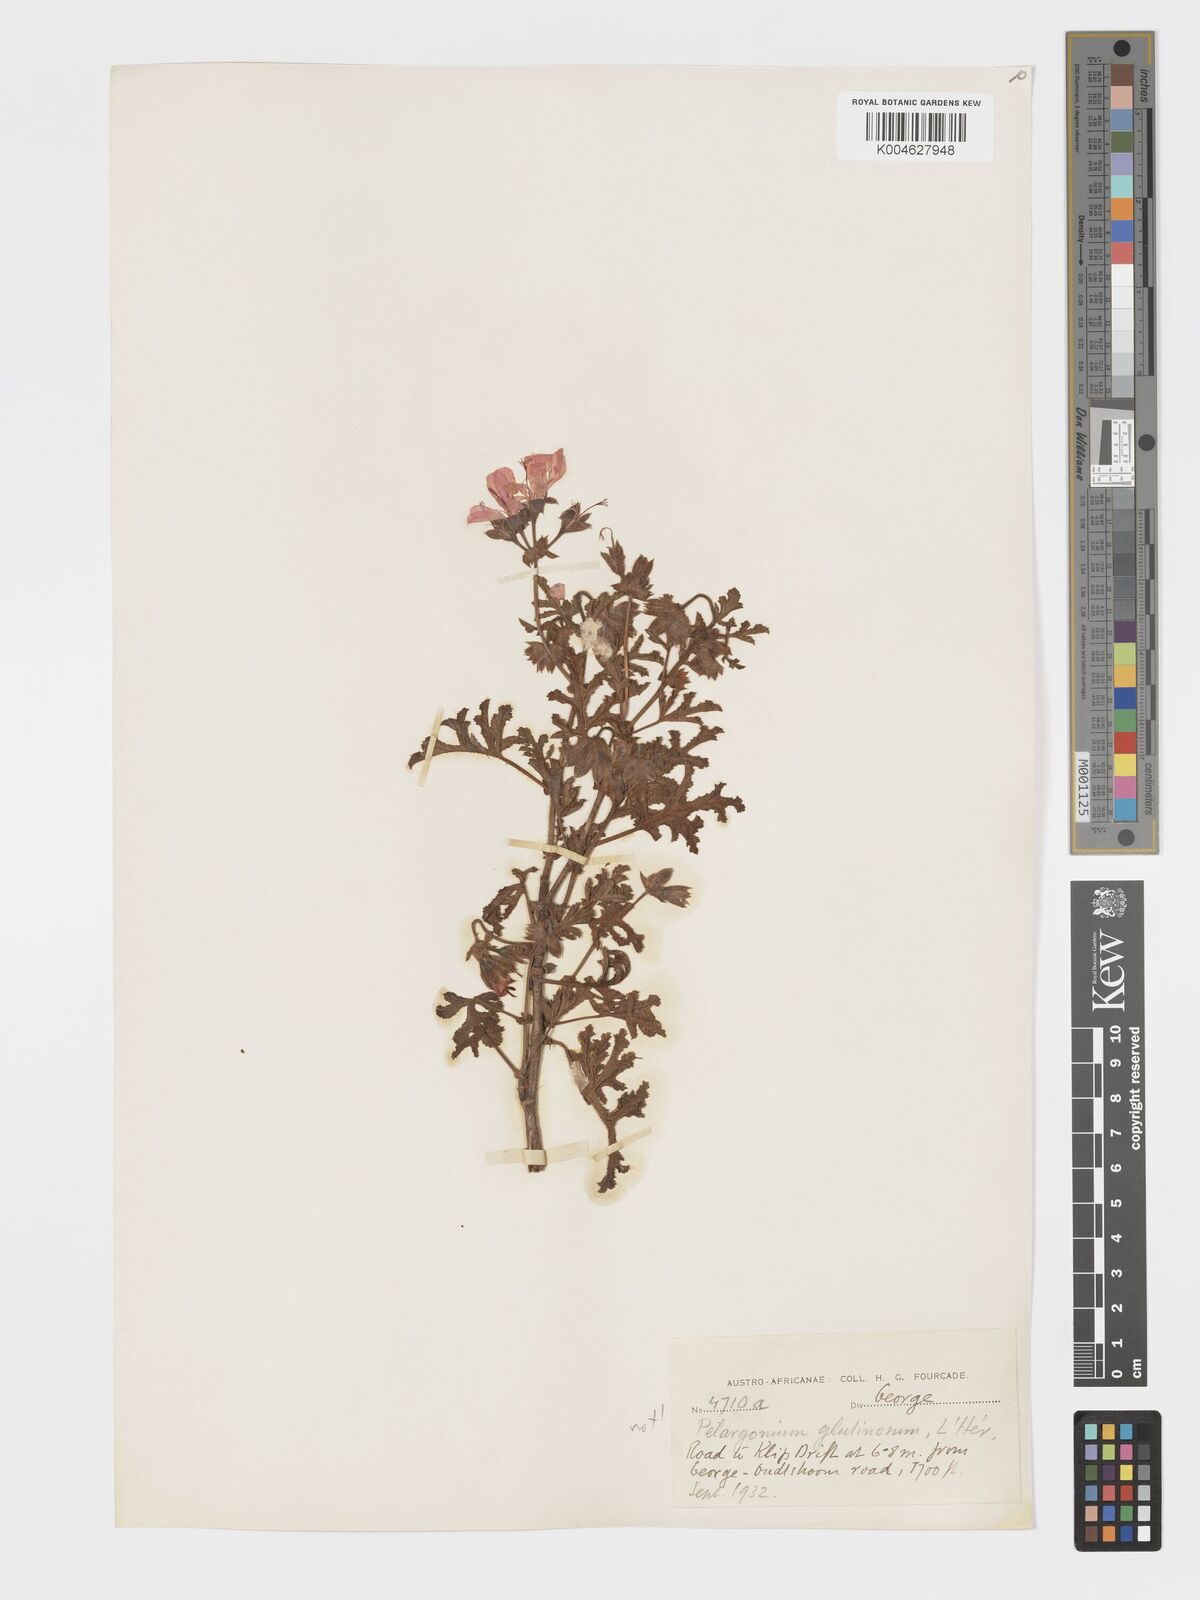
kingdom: Plantae
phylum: Tracheophyta
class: Magnoliopsida
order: Geraniales
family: Geraniaceae
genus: Pelargonium
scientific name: Pelargonium quercifolium
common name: Oakleaf geranium
